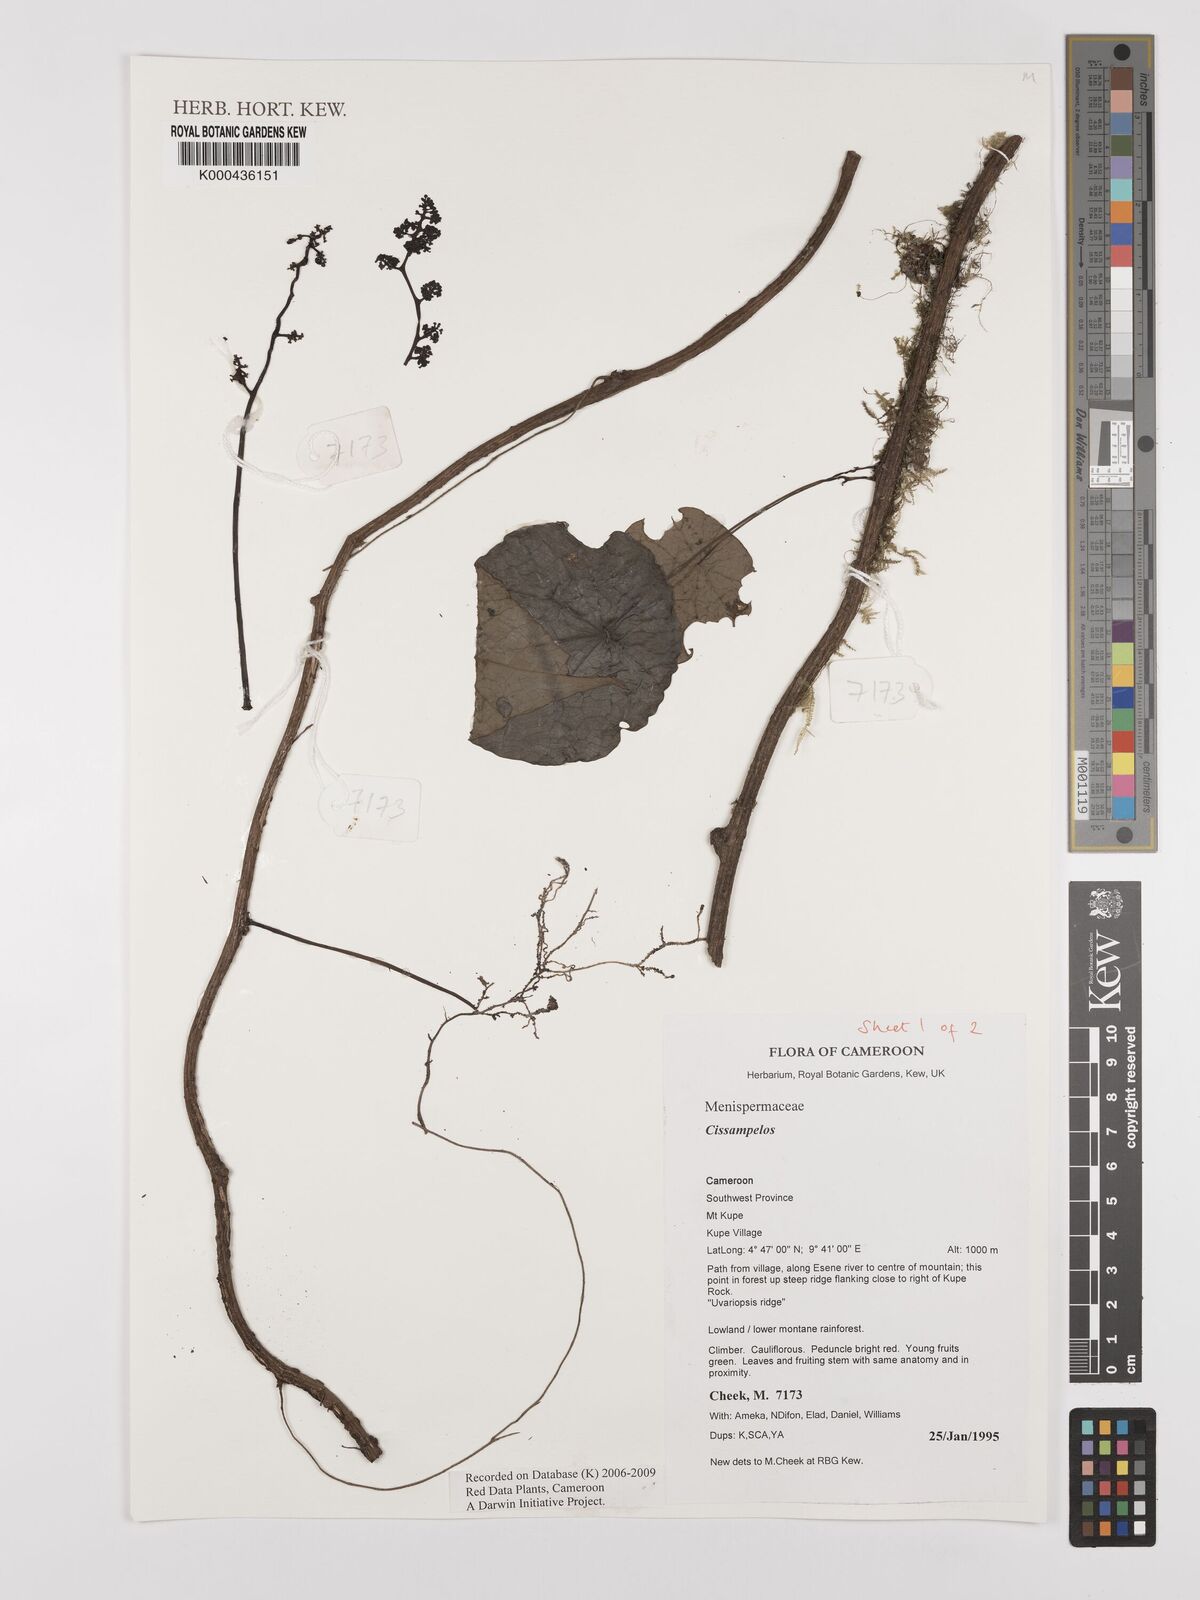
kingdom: Plantae
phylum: Tracheophyta
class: Magnoliopsida
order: Ranunculales
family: Menispermaceae
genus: Cissampelos
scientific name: Cissampelos
